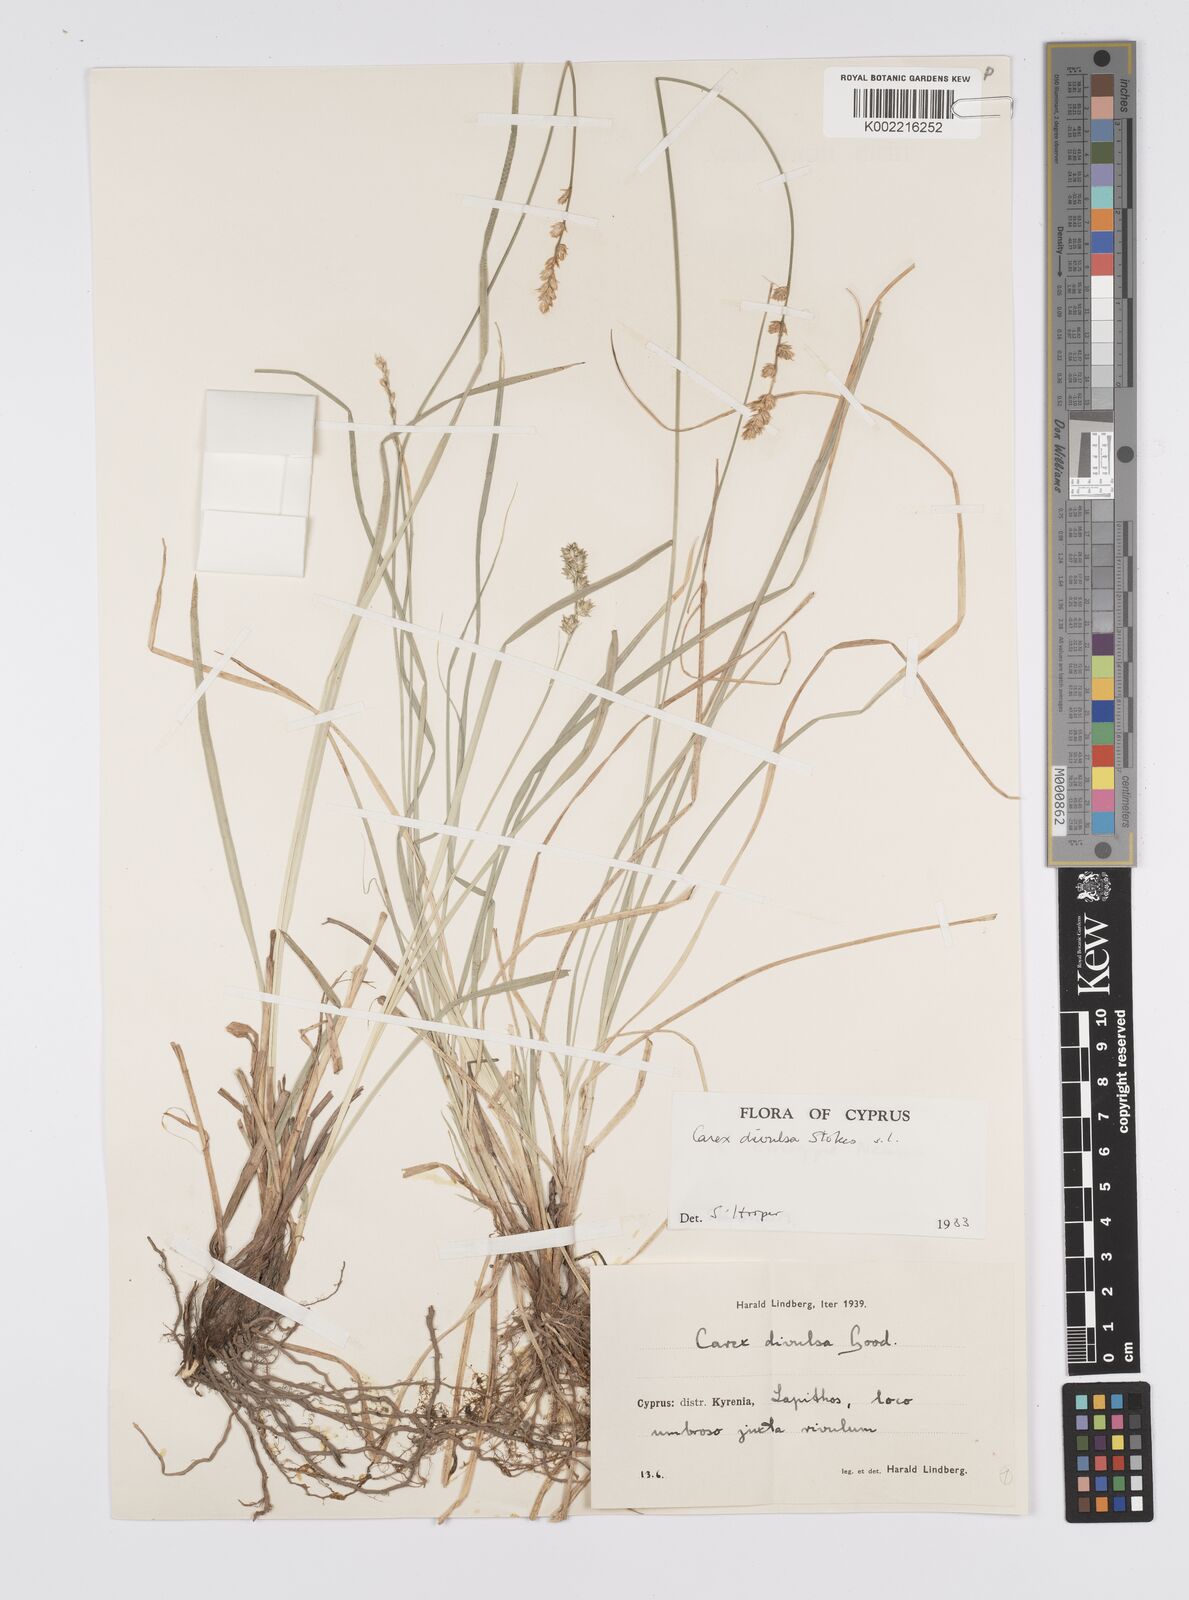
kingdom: Plantae
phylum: Tracheophyta
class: Liliopsida
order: Poales
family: Cyperaceae
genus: Carex
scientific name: Carex divulsa
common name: Grassland sedge
